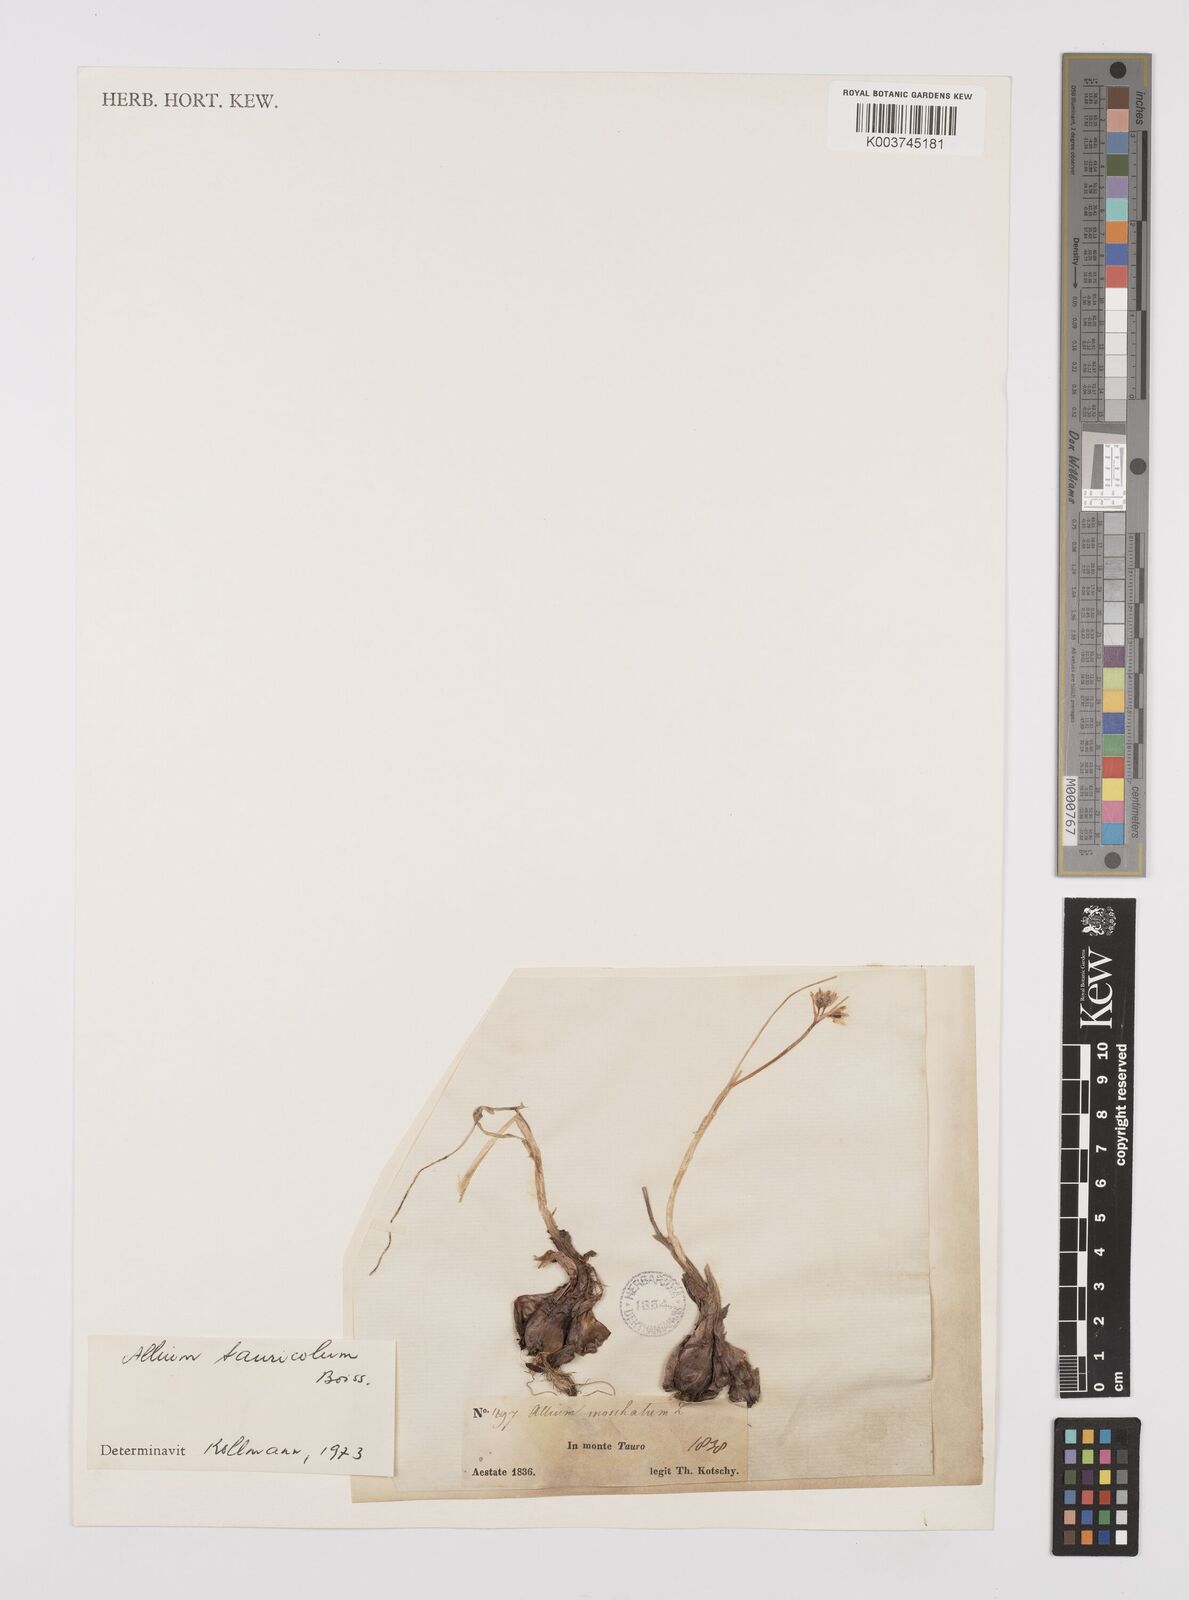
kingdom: Plantae
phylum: Tracheophyta
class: Liliopsida
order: Asparagales
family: Amaryllidaceae
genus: Allium
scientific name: Allium tauricola
